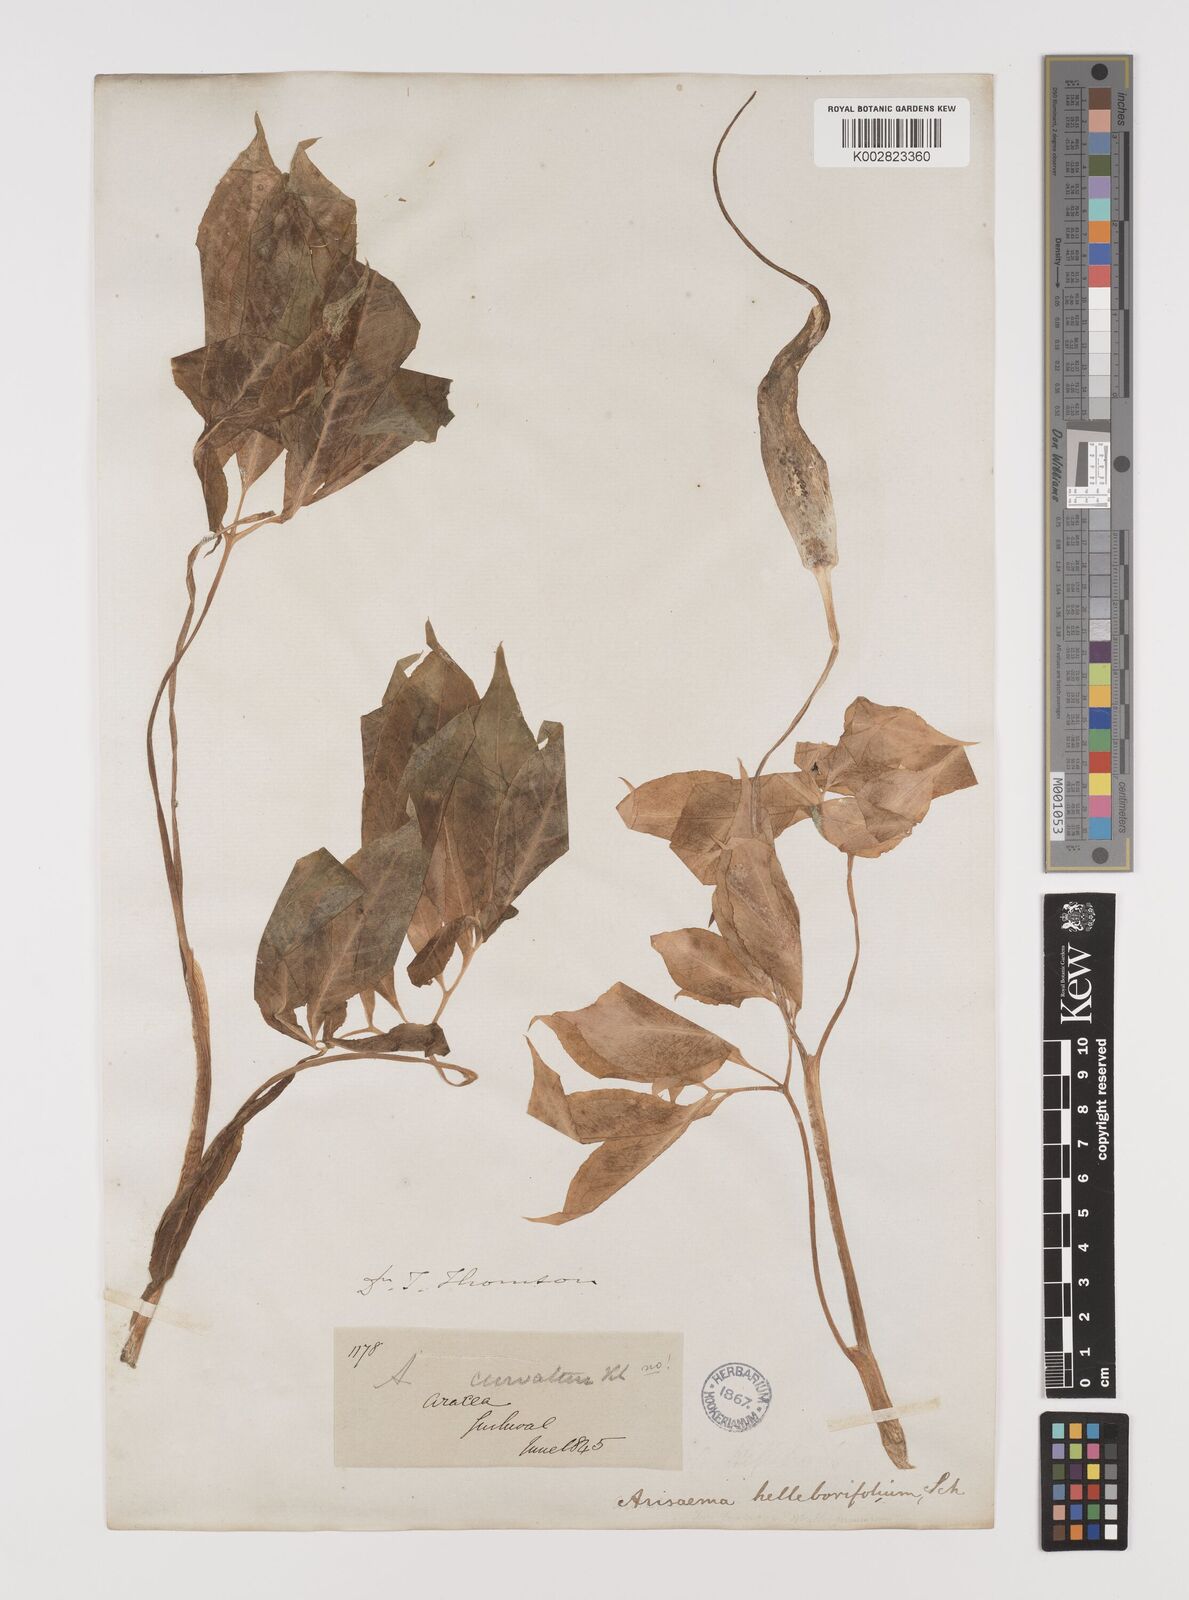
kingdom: Plantae
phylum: Tracheophyta
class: Liliopsida
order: Alismatales
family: Araceae
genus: Arisaema
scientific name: Arisaema tortuosum
